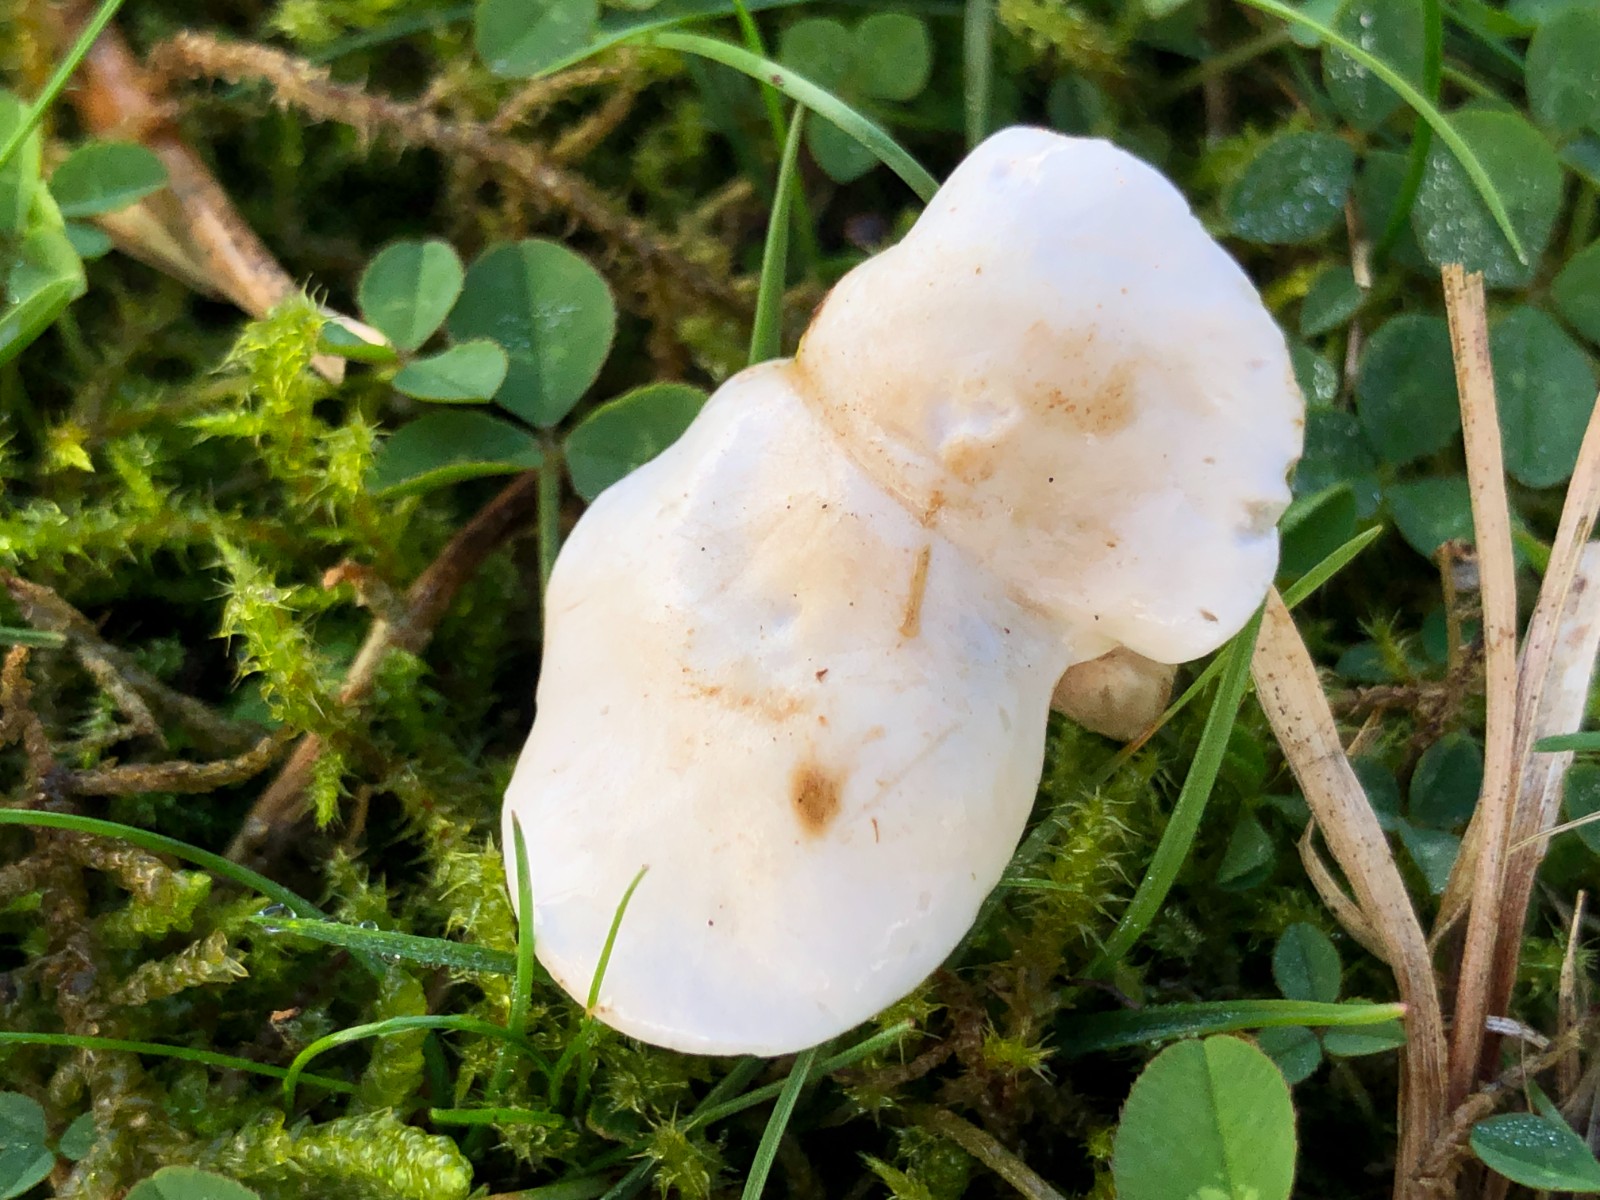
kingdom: Fungi
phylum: Basidiomycota
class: Agaricomycetes
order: Agaricales
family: Entolomataceae
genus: Clitopilus
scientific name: Clitopilus prunulus
